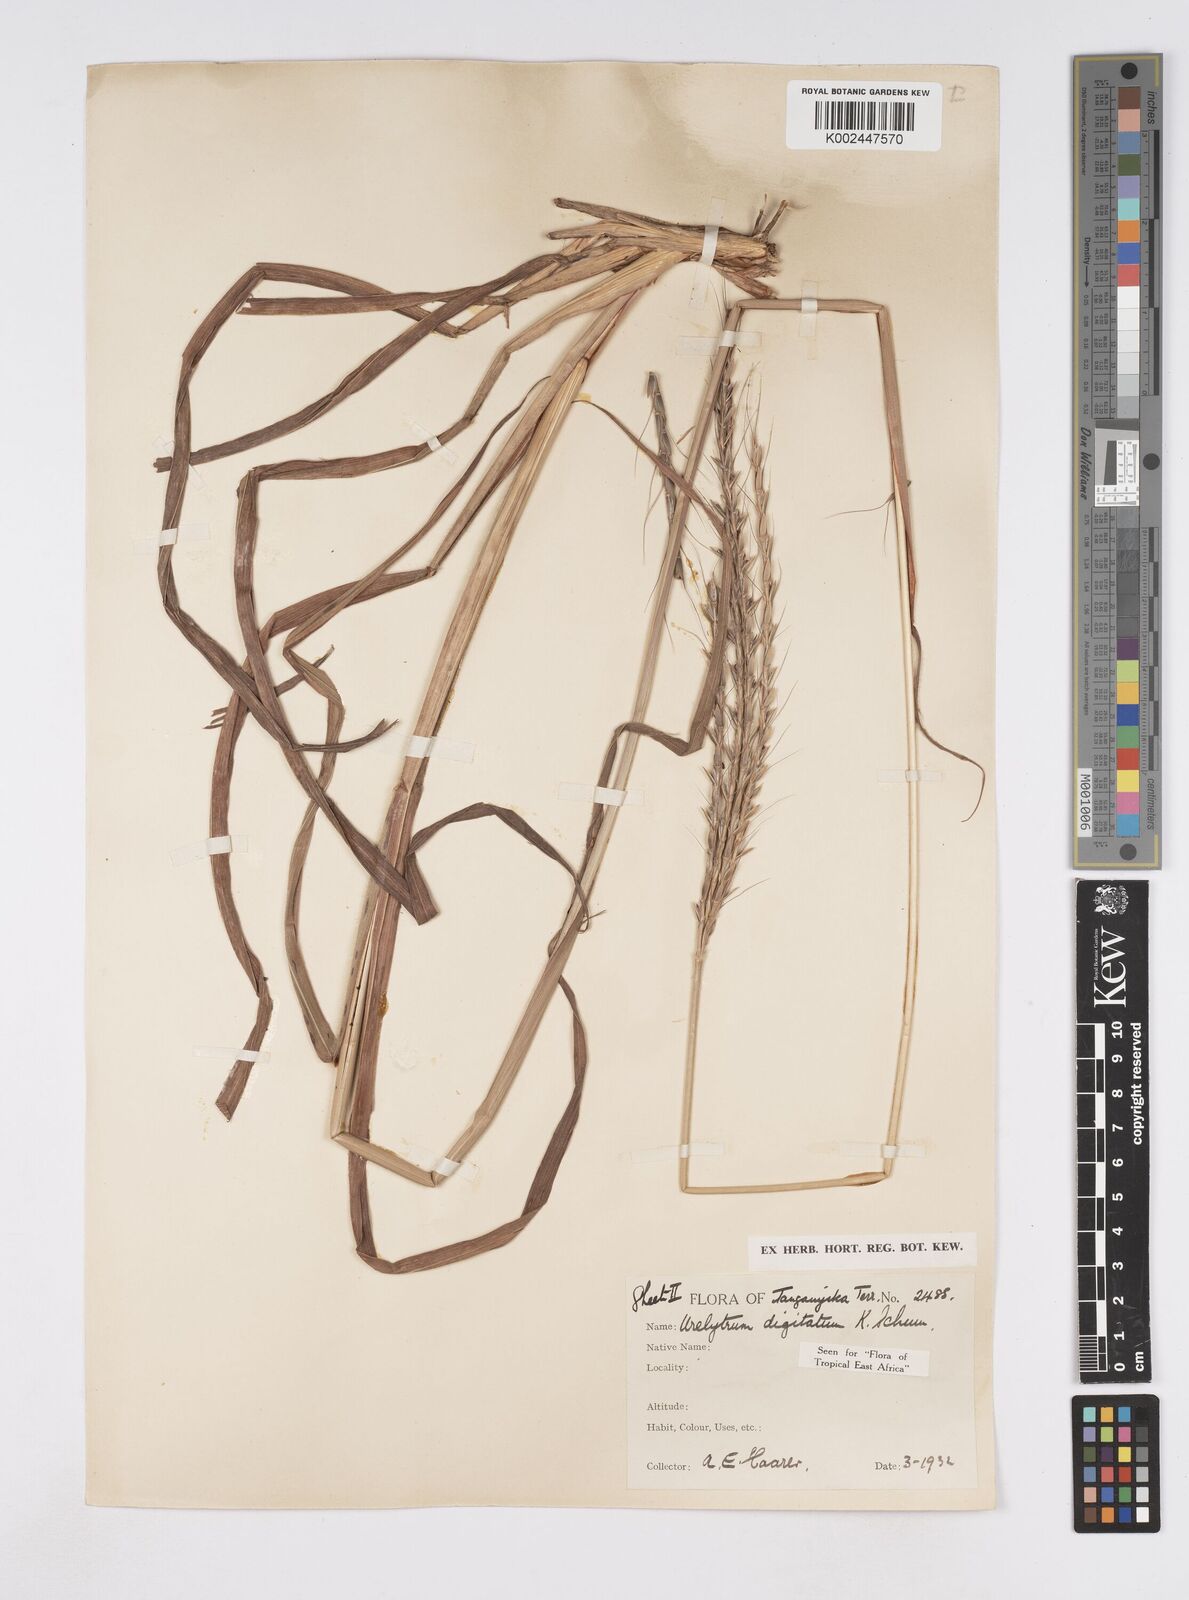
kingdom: Plantae
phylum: Tracheophyta
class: Liliopsida
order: Poales
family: Poaceae
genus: Urelytrum
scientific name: Urelytrum digitatum
